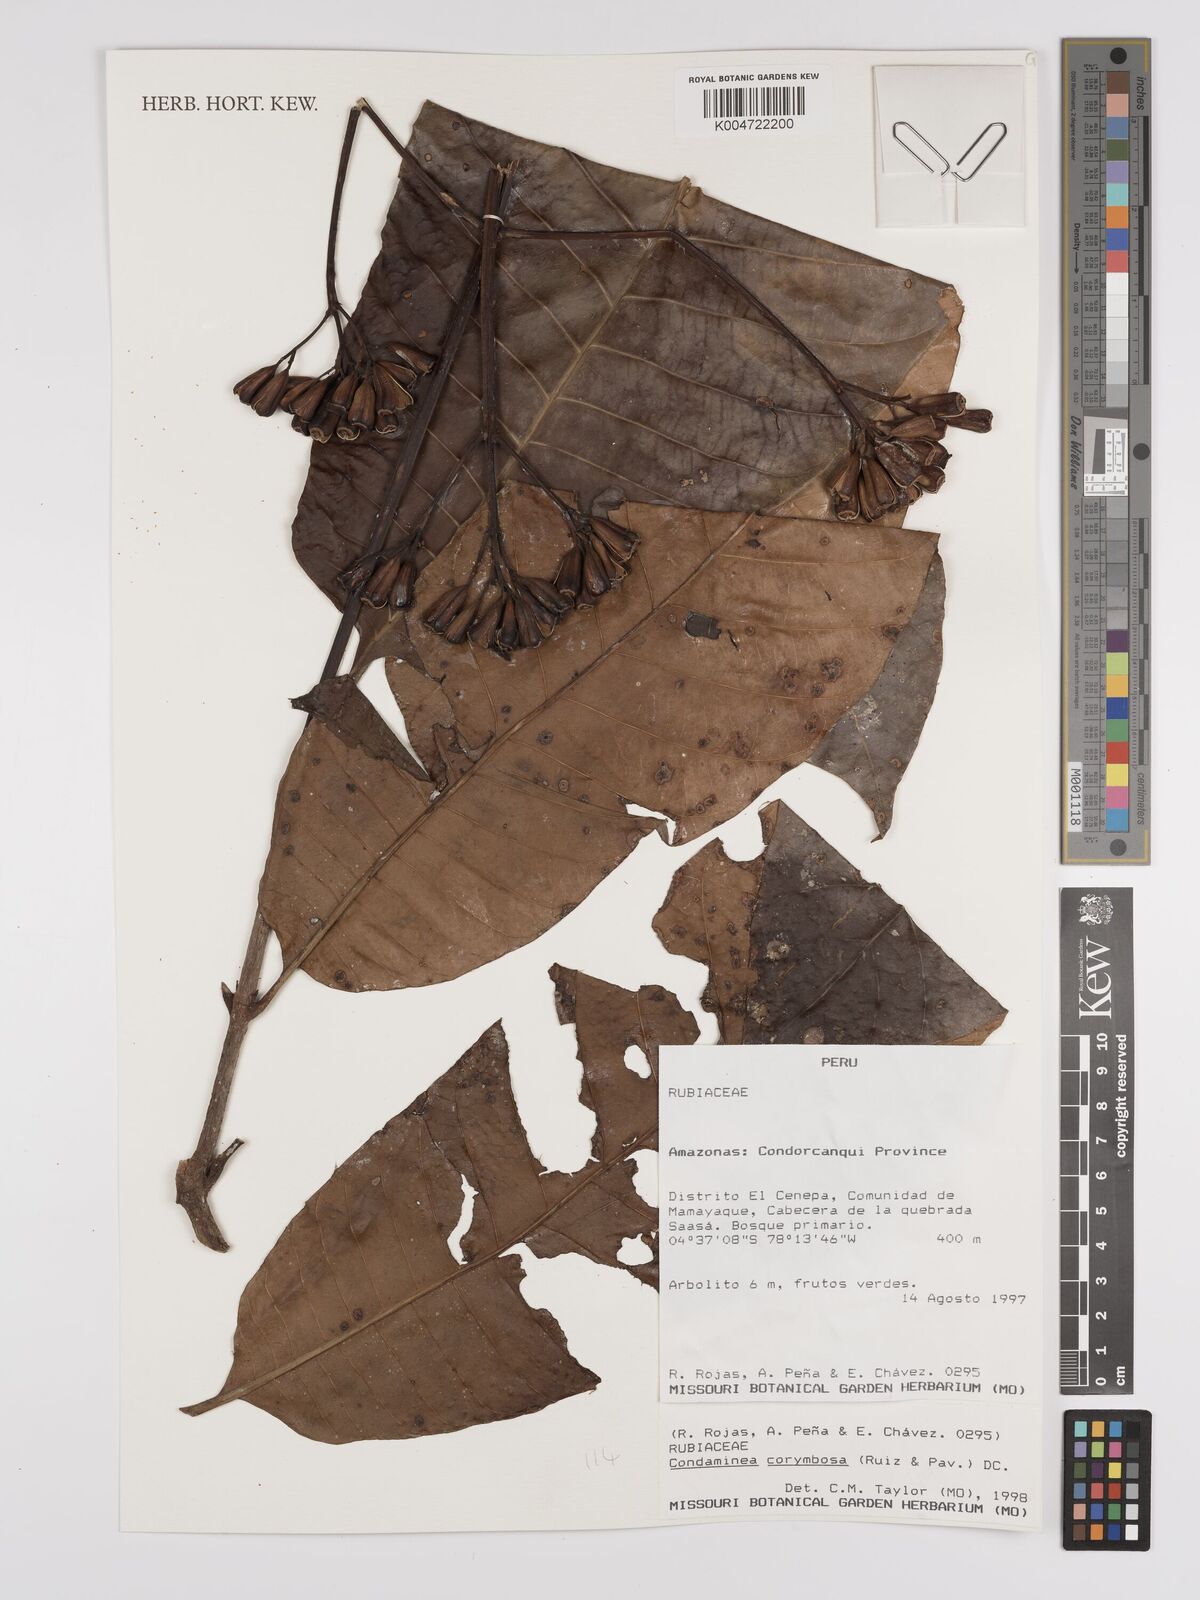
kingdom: Plantae
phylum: Tracheophyta
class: Magnoliopsida
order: Gentianales
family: Rubiaceae
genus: Condaminea
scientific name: Condaminea corymbosa
